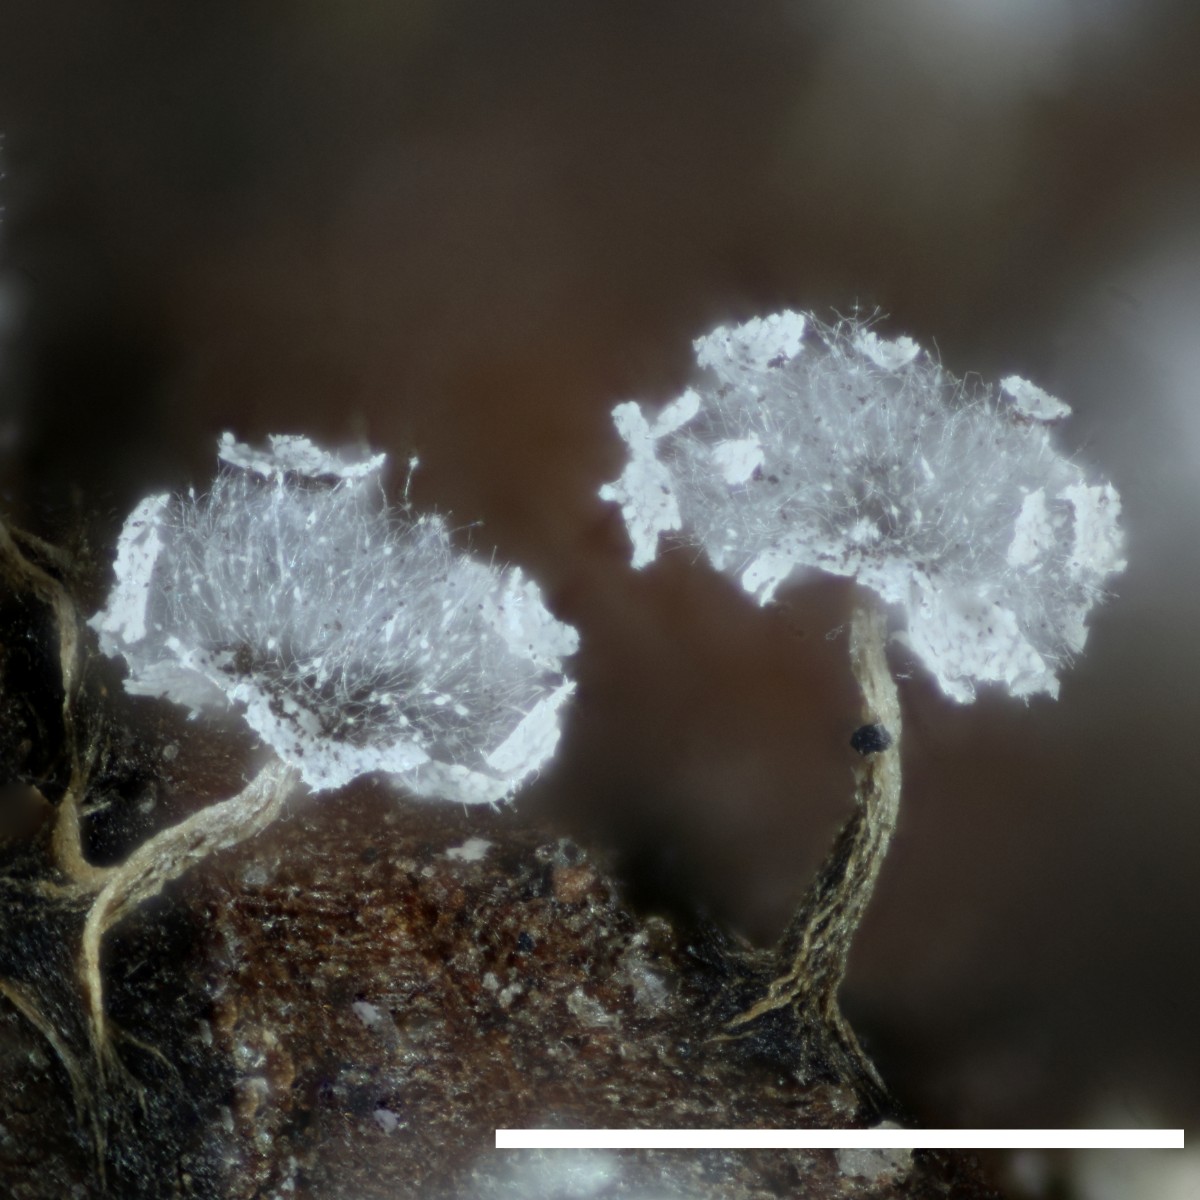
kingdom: Protozoa
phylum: Mycetozoa
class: Myxomycetes
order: Physarales
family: Physaraceae
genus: Physarum
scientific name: Physarum album
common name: nikkende støvknop
